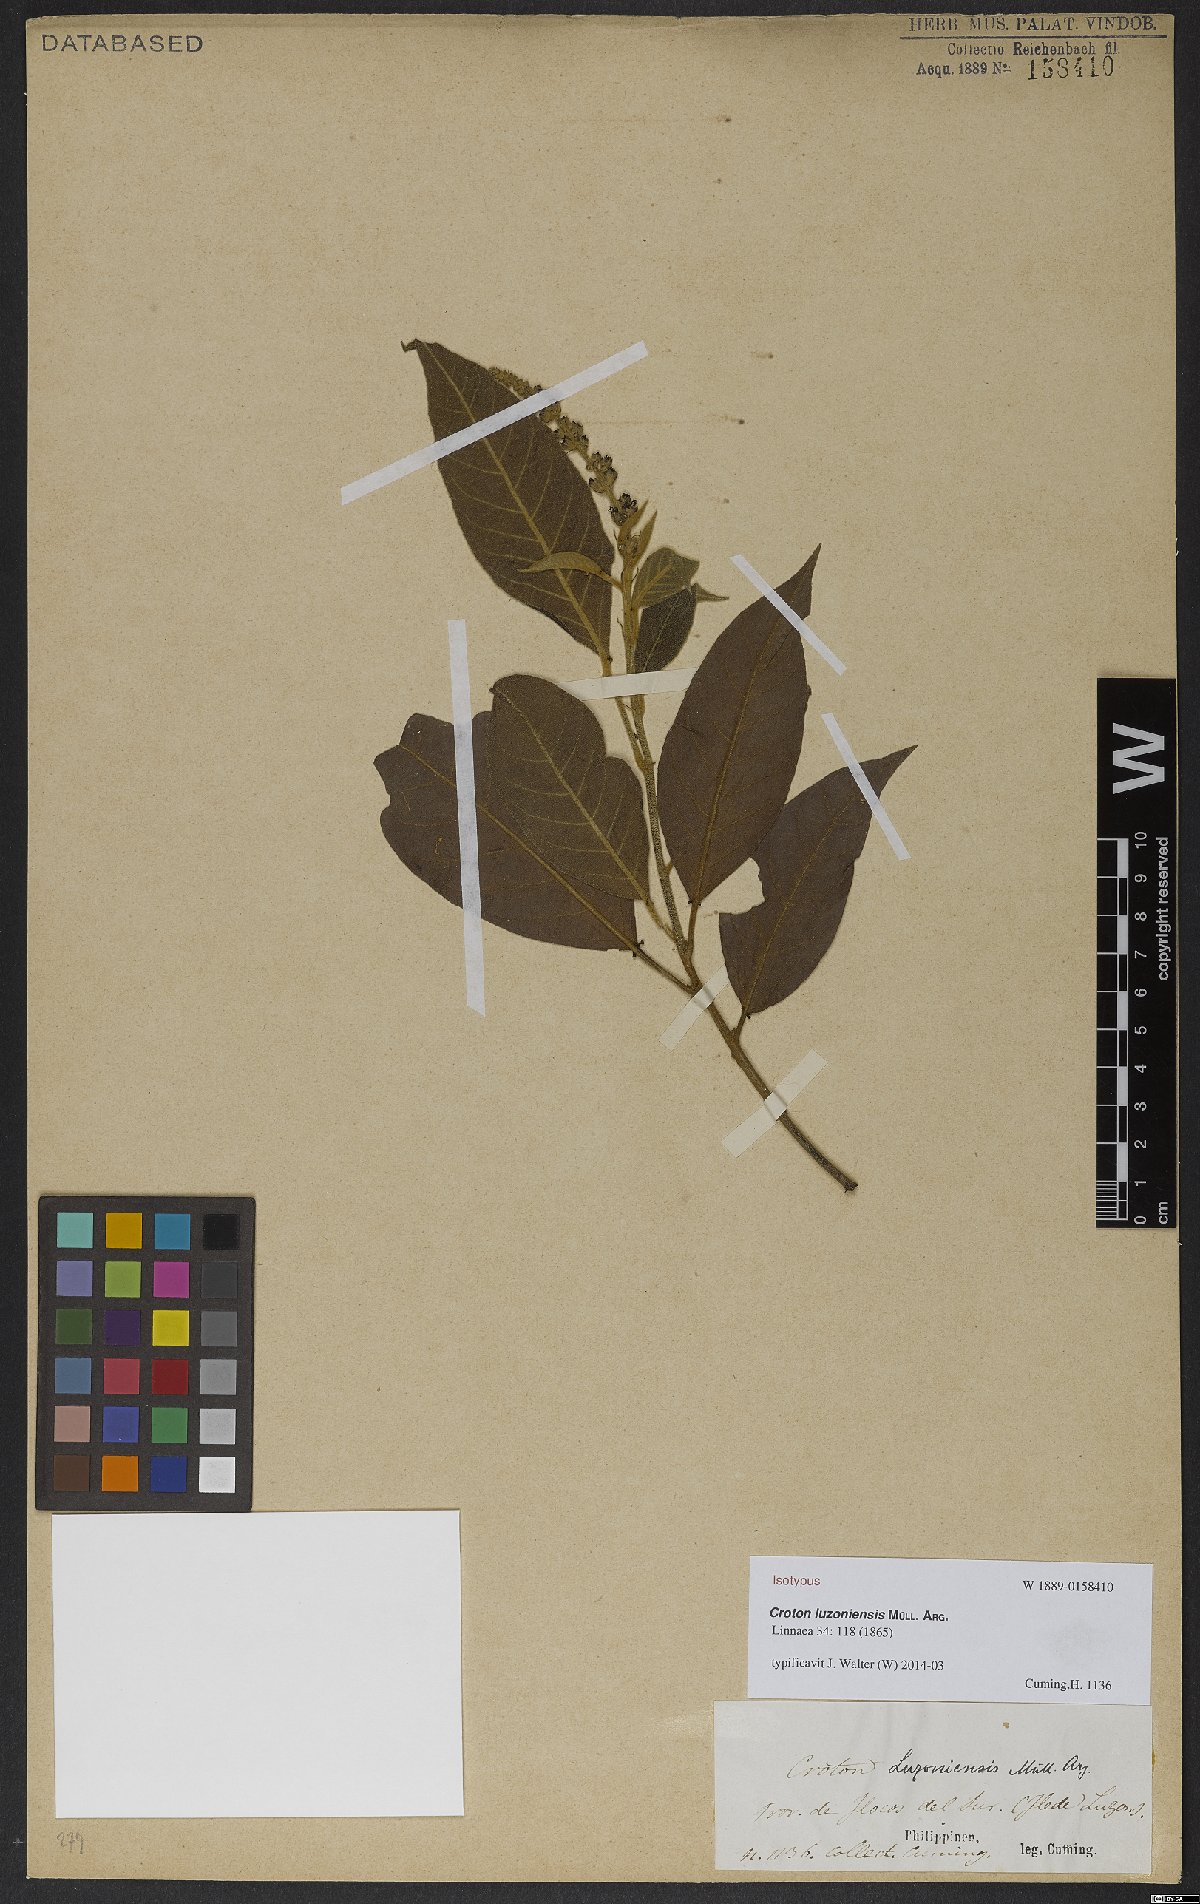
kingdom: Plantae
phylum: Tracheophyta
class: Magnoliopsida
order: Malpighiales
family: Euphorbiaceae
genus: Croton
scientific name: Croton luzoniensis
